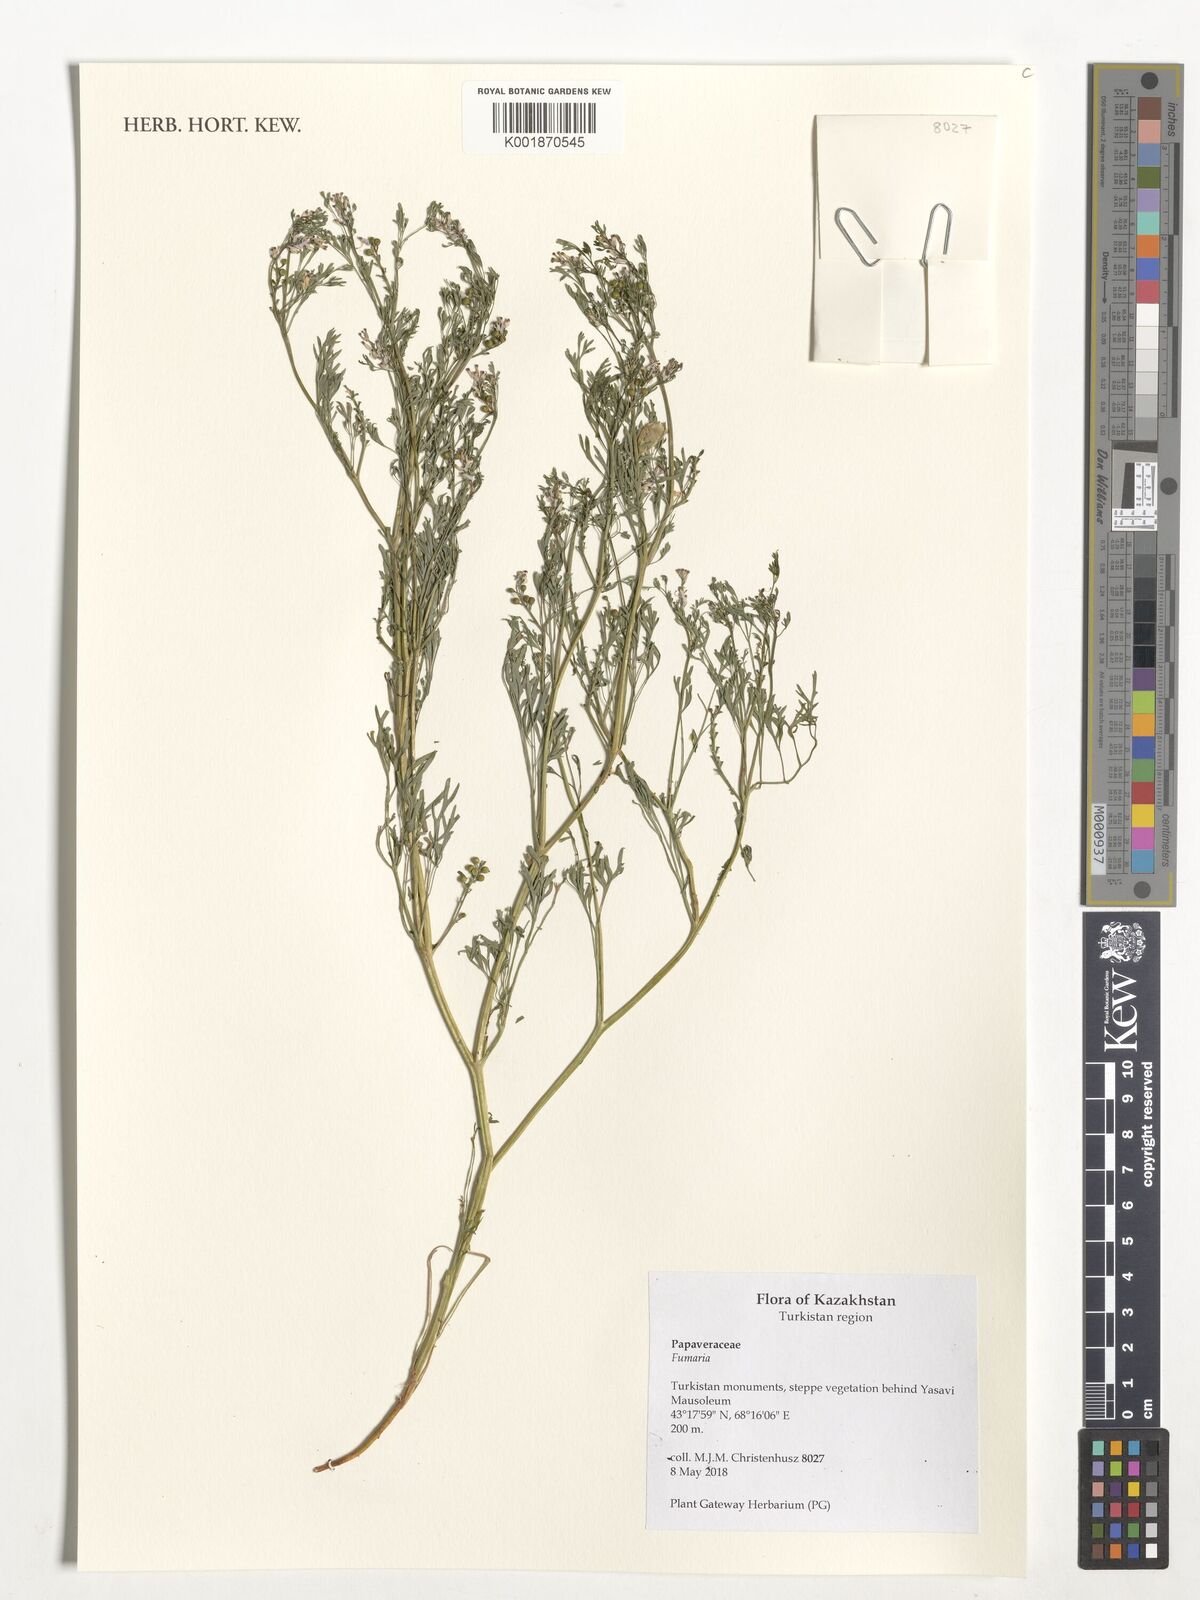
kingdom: Plantae
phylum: Tracheophyta
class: Magnoliopsida
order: Ranunculales
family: Papaveraceae
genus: Fumaria
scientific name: Fumaria
